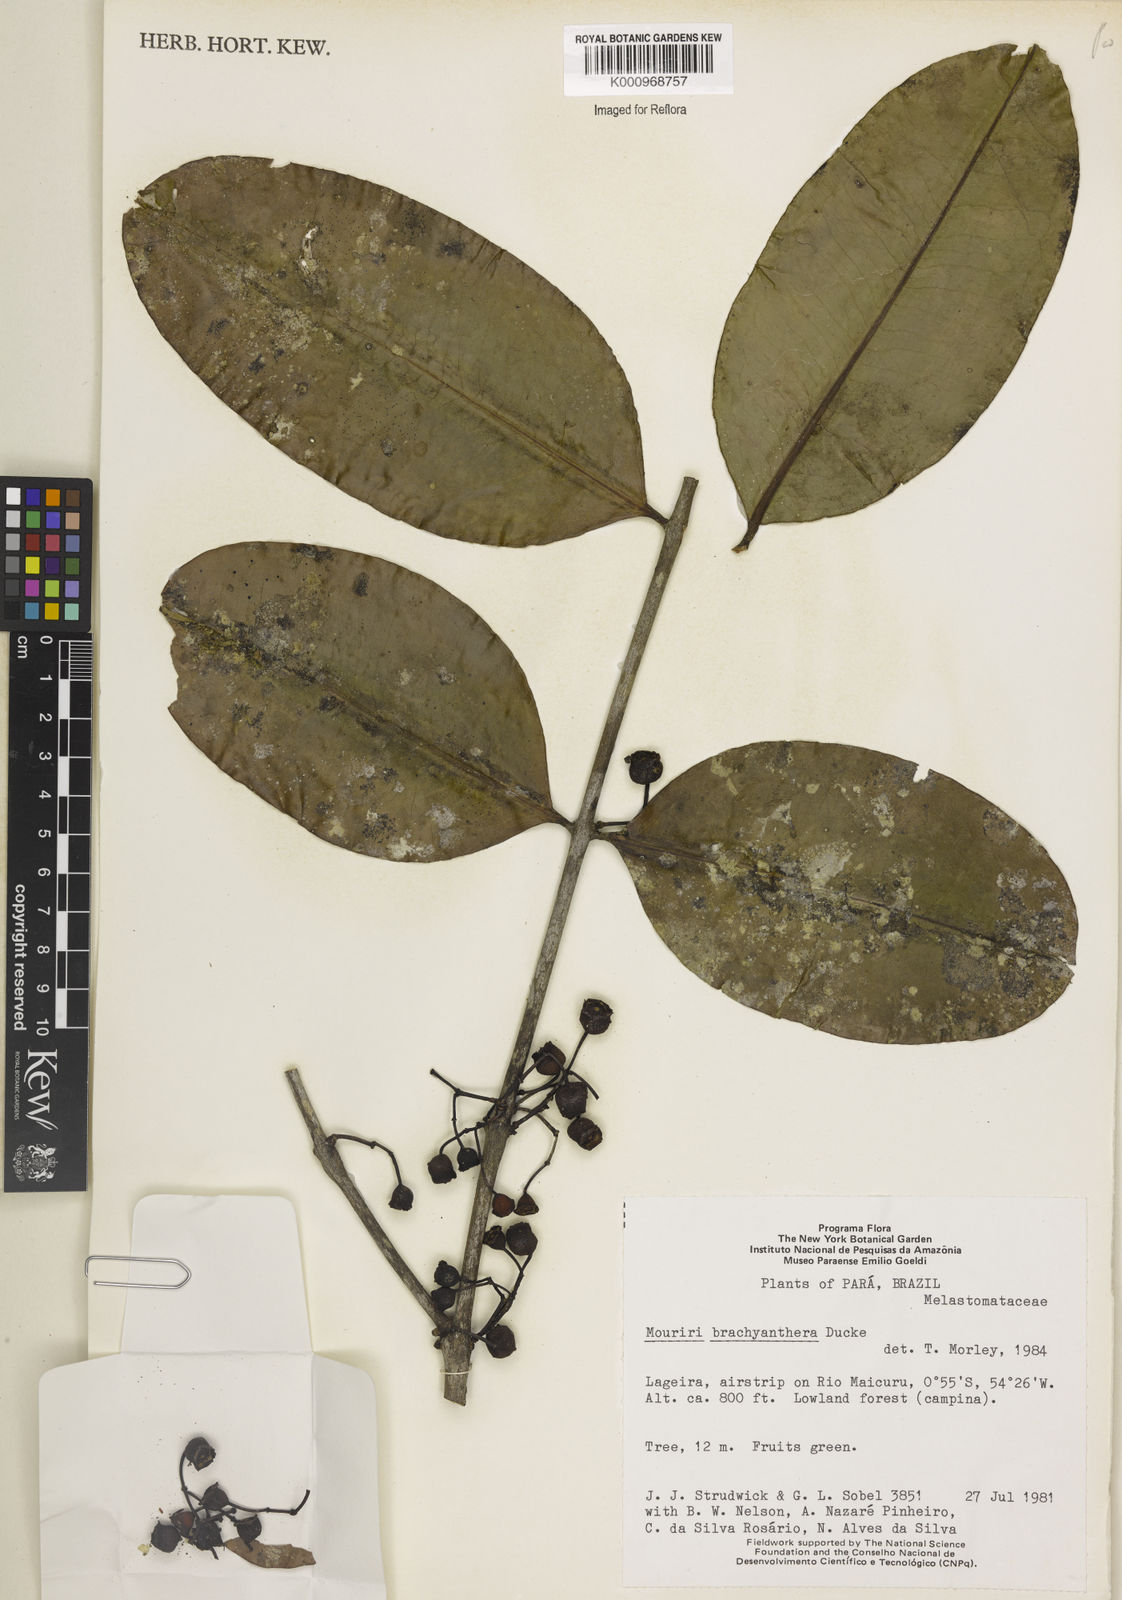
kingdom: Plantae
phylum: Tracheophyta
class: Magnoliopsida
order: Myrtales
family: Melastomataceae
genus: Mouriri
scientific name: Mouriri brachyanthera
